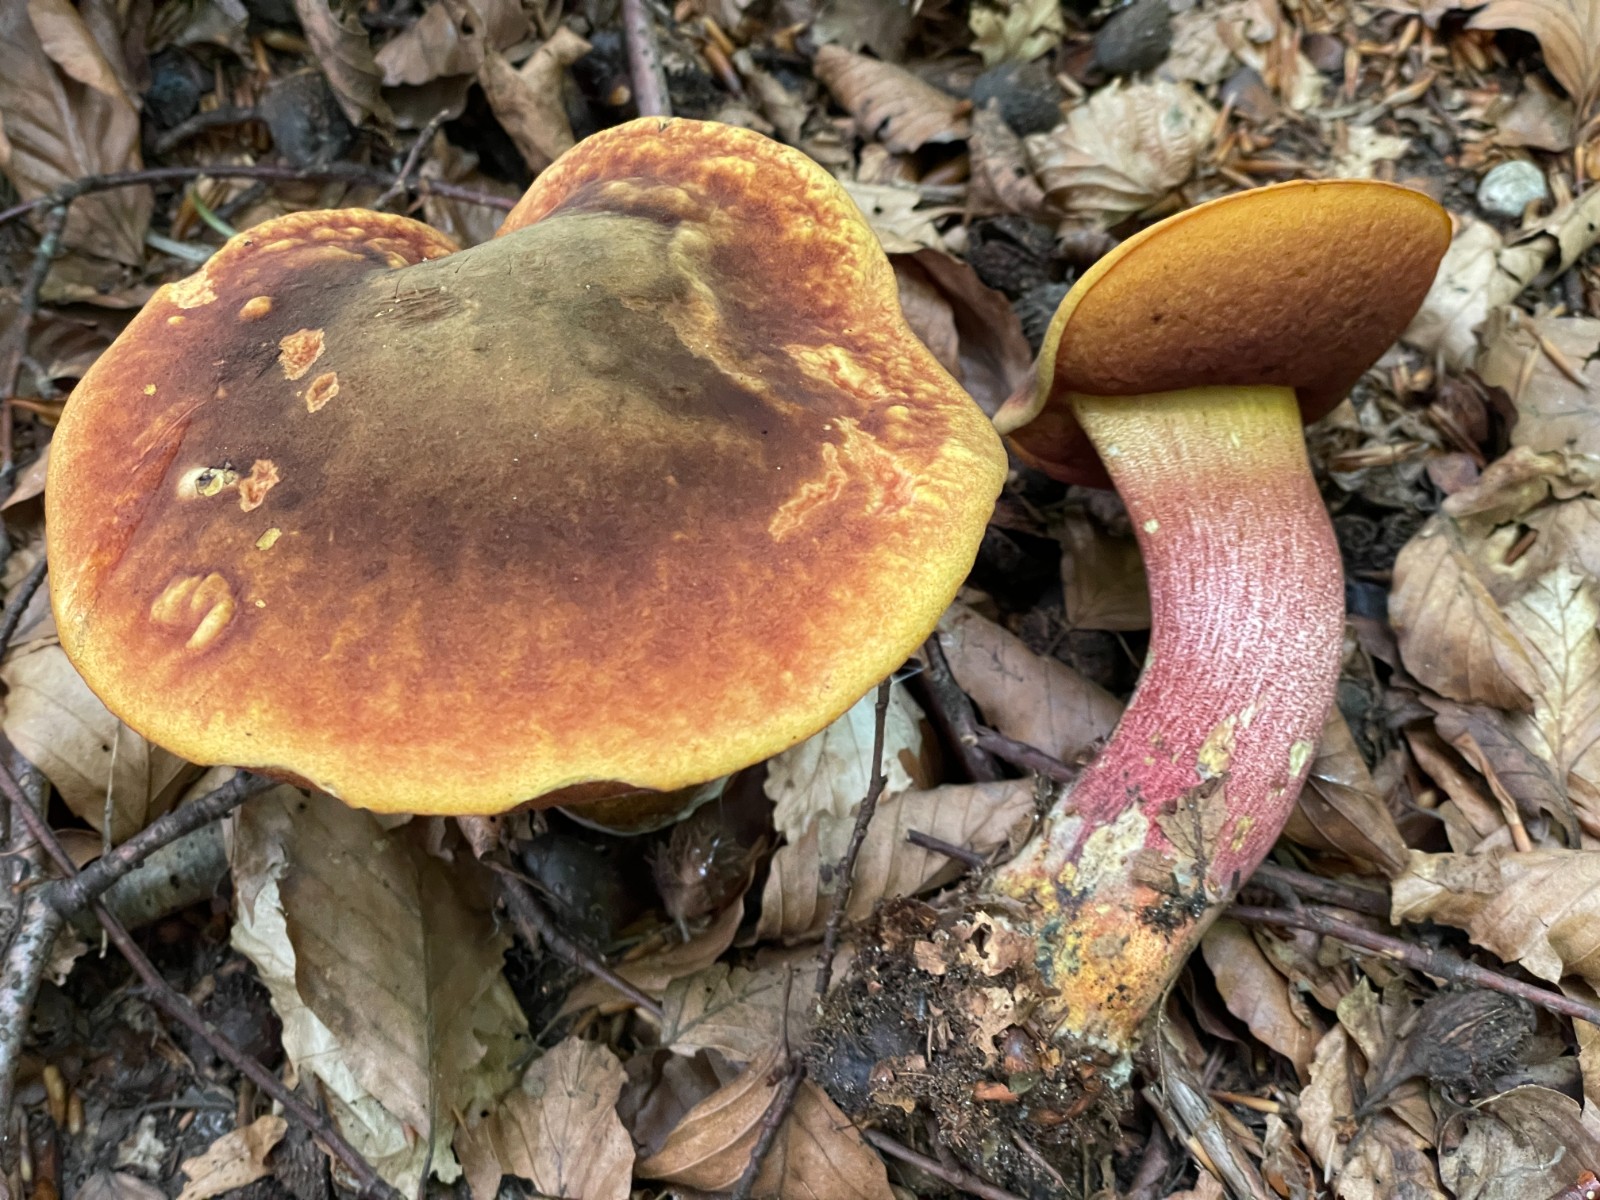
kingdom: Fungi
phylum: Basidiomycota
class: Agaricomycetes
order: Boletales
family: Boletaceae
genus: Neoboletus
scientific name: Neoboletus erythropus
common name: punktstokket indigorørhat
